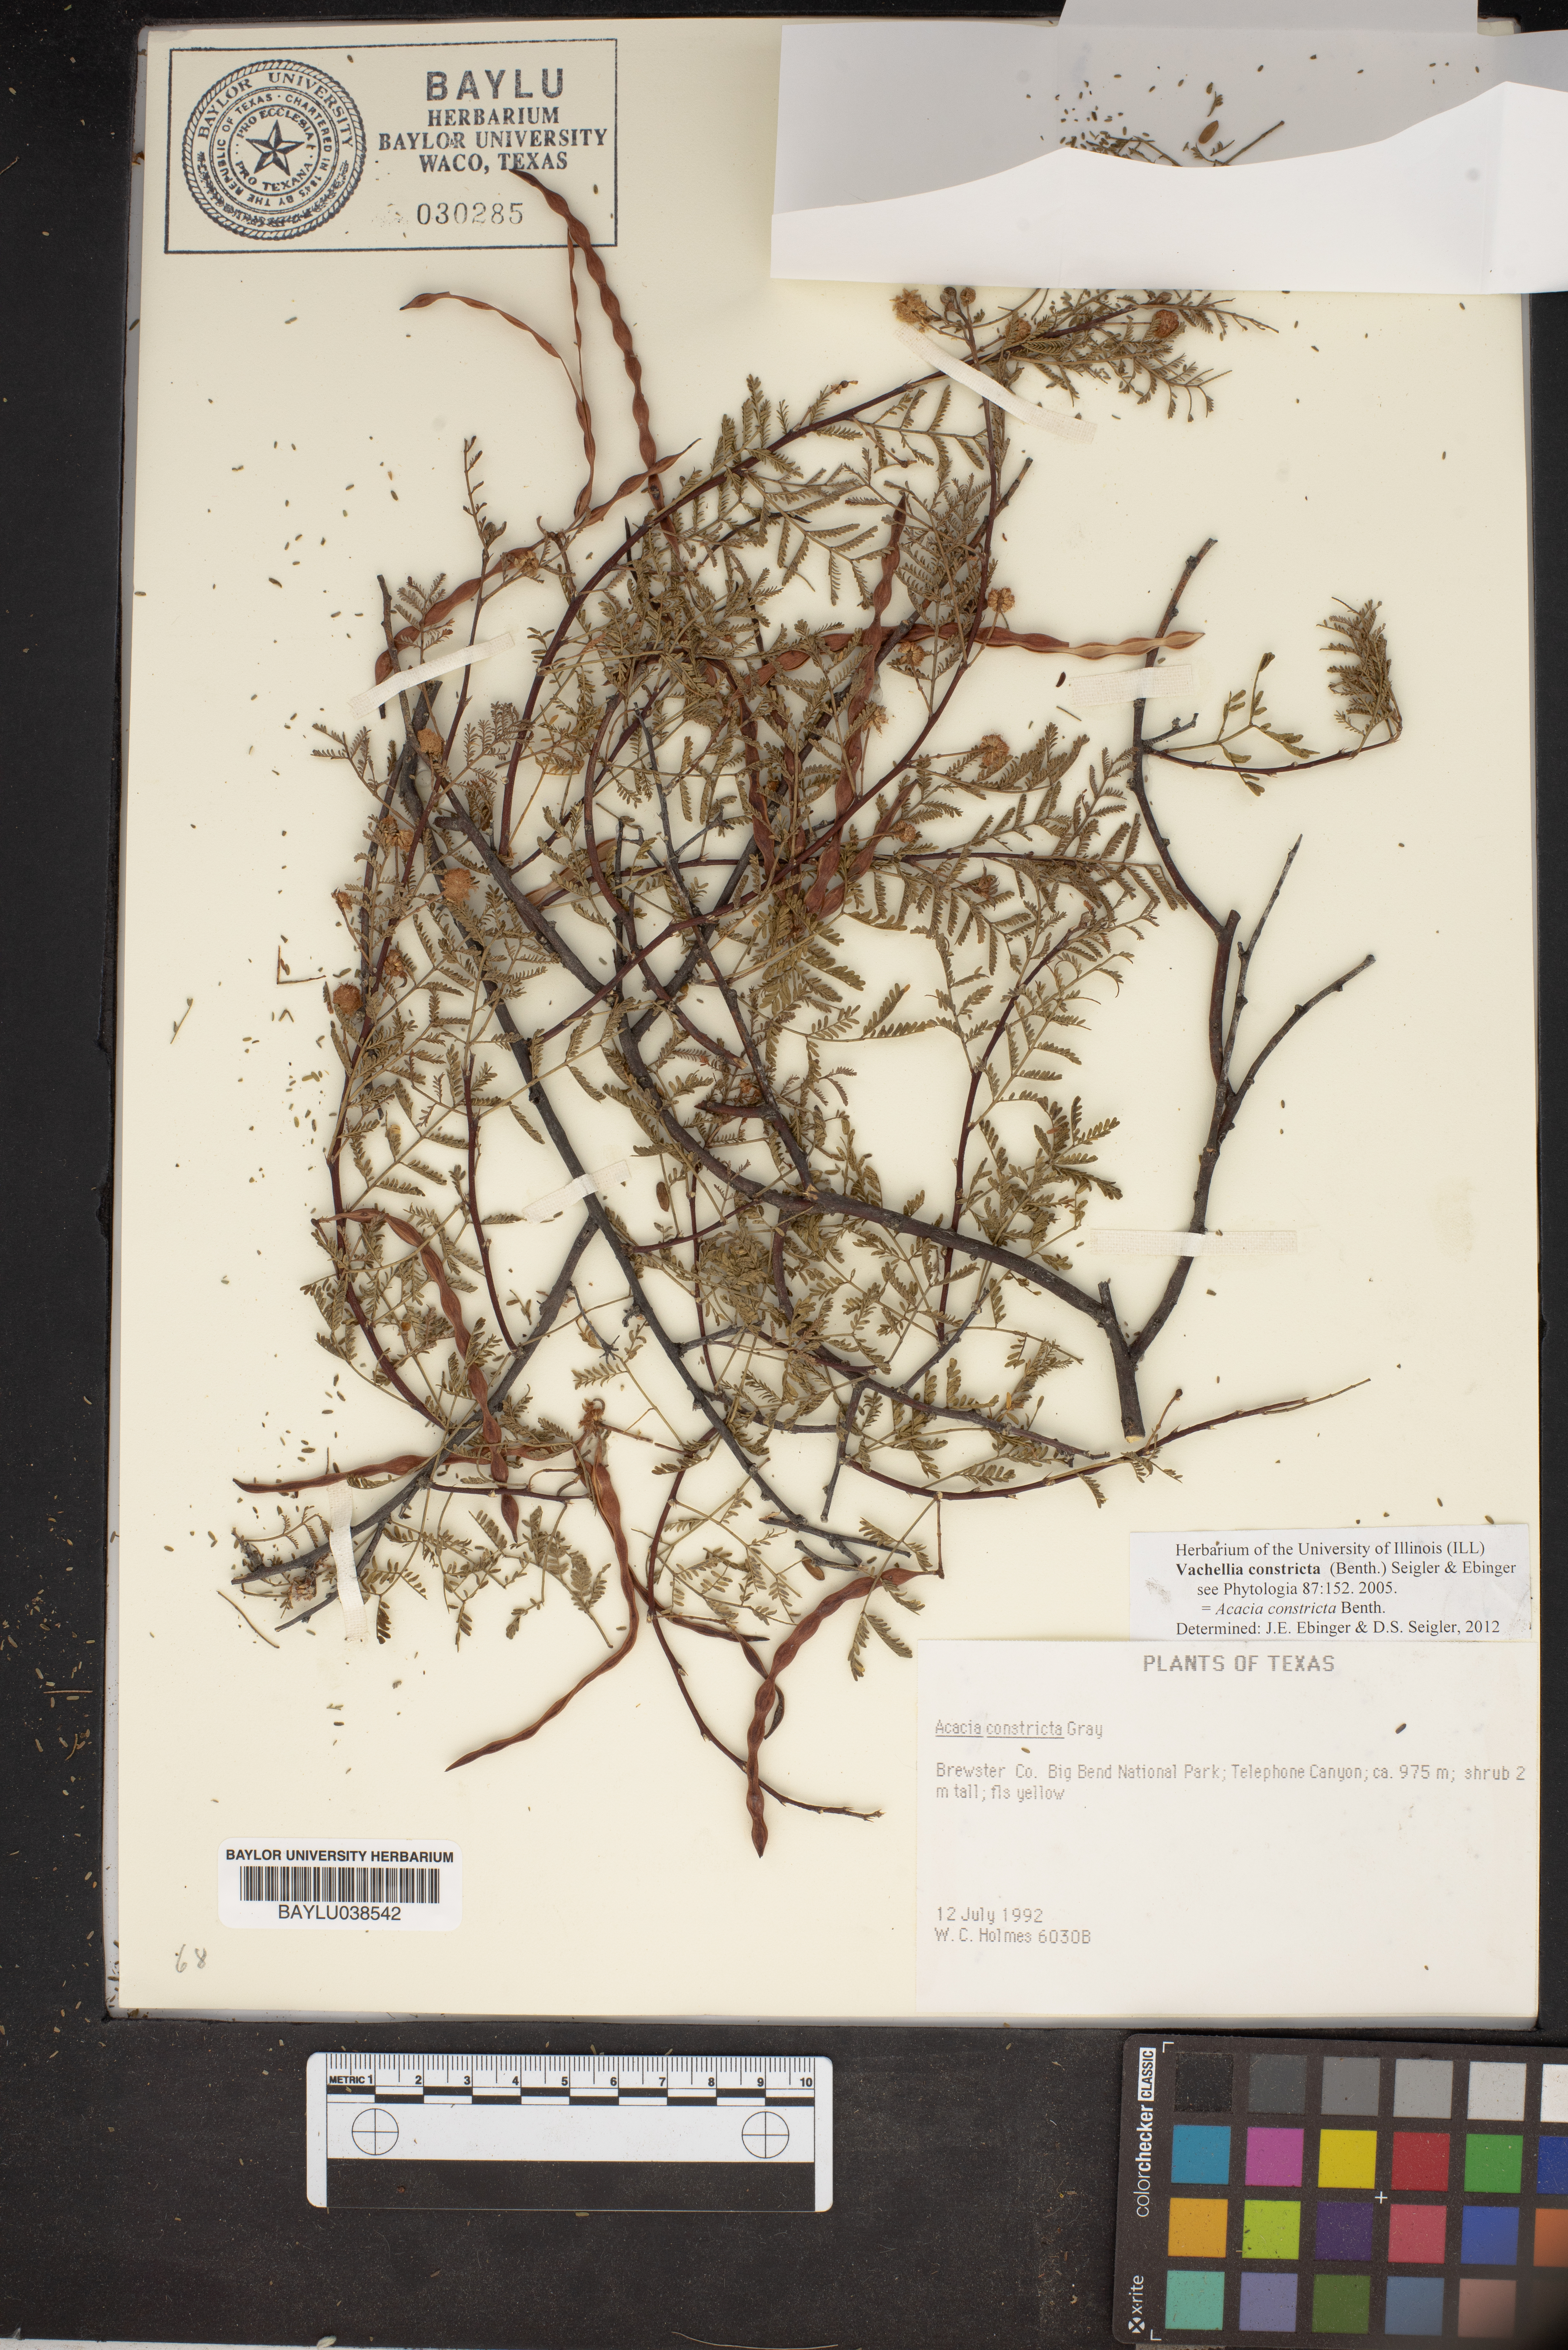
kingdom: Plantae
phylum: Tracheophyta
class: Magnoliopsida
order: Fabales
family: Fabaceae
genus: Vachellia
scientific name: Vachellia constricta
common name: Mescat acacia
